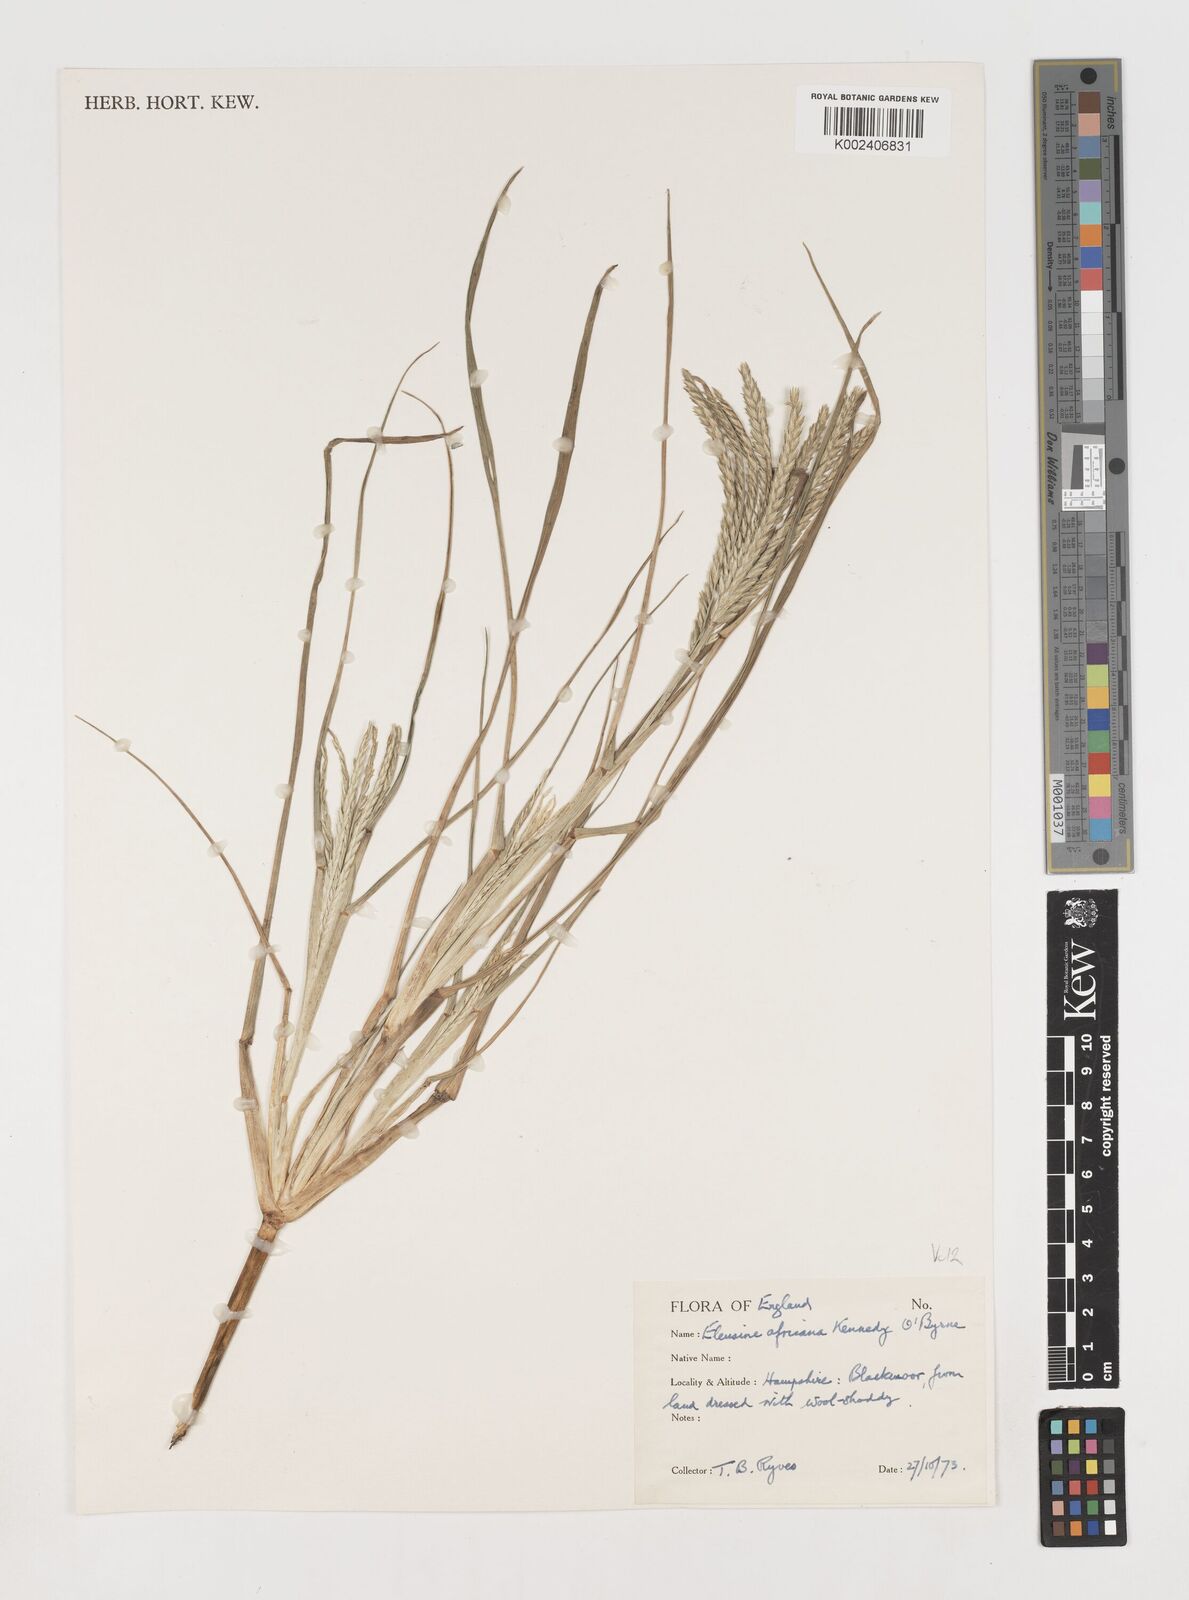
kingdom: Plantae
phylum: Tracheophyta
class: Liliopsida
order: Poales
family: Poaceae
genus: Eleusine
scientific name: Eleusine africana
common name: Wild african finger millet
